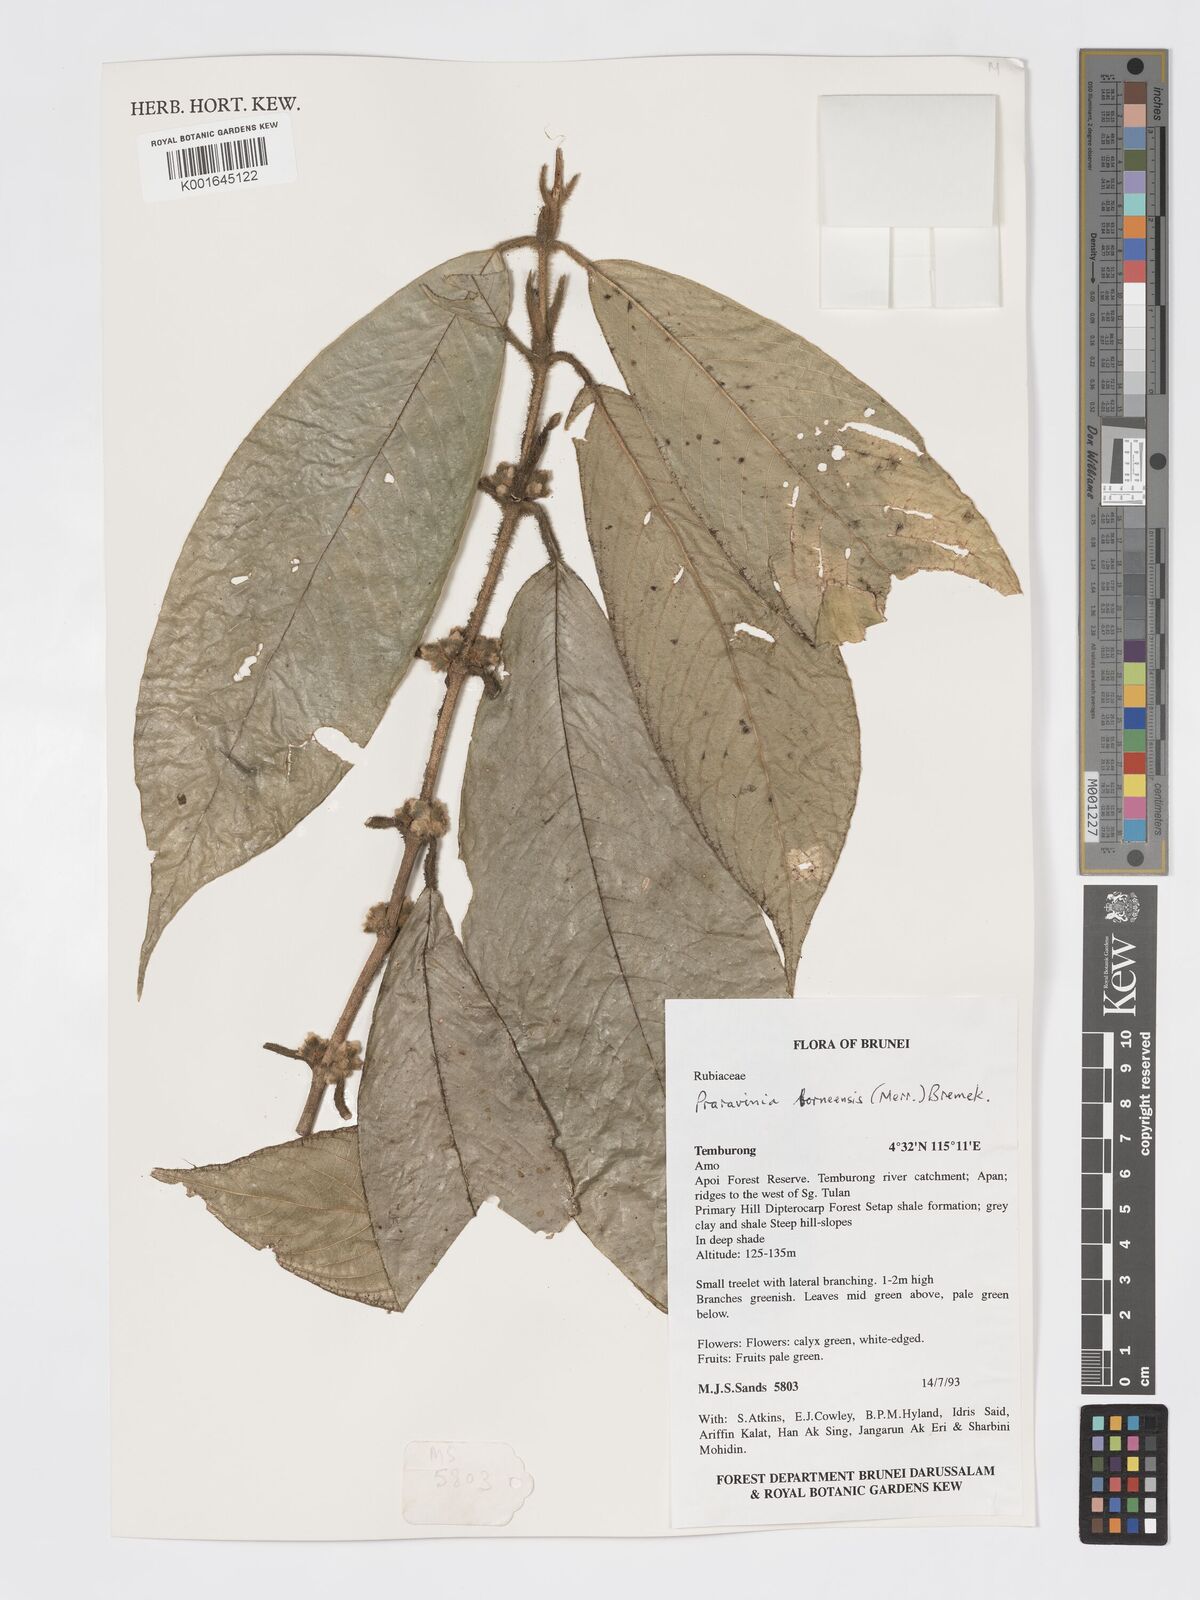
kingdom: Plantae
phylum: Tracheophyta
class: Magnoliopsida
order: Gentianales
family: Rubiaceae
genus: Praravinia
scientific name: Praravinia borneensis
